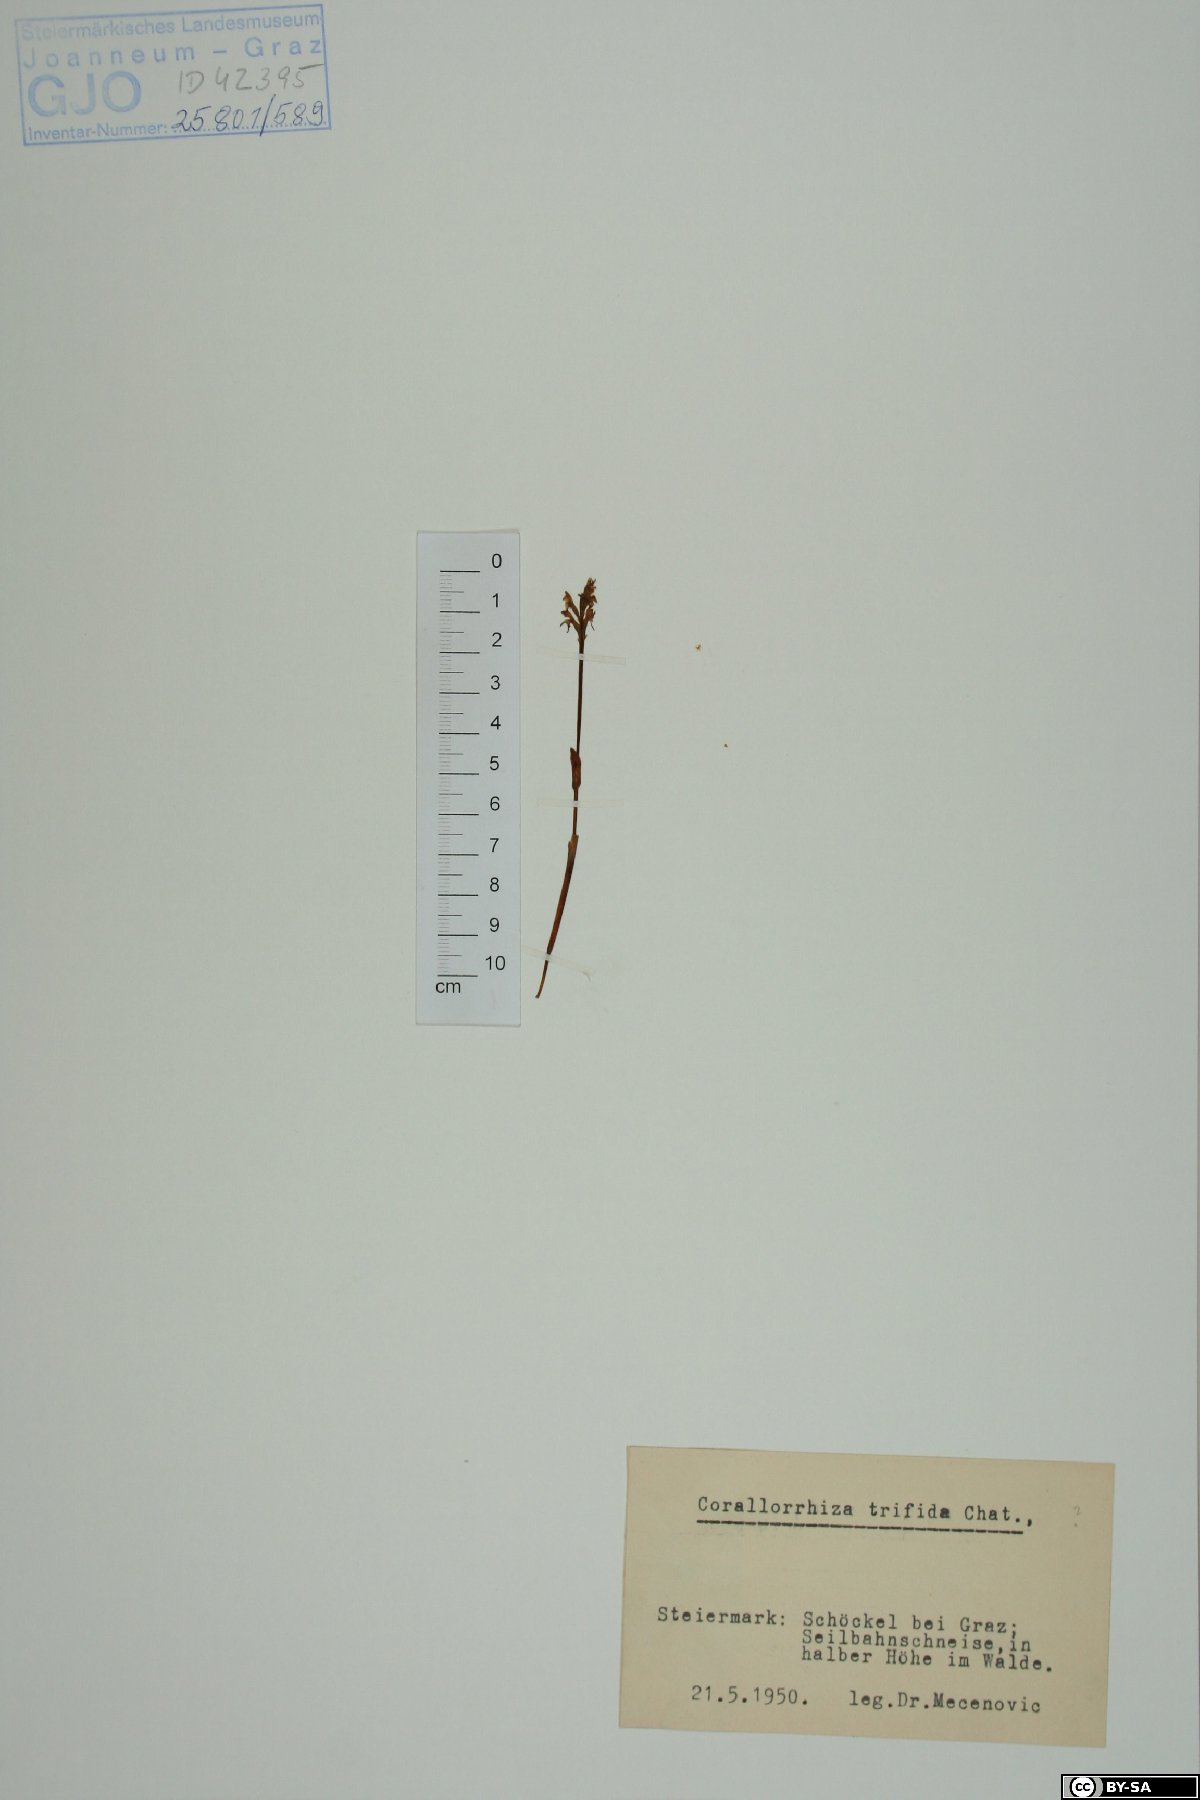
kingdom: Plantae
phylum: Tracheophyta
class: Liliopsida
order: Asparagales
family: Orchidaceae
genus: Corallorhiza
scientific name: Corallorhiza trifida
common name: Yellow coralroot
